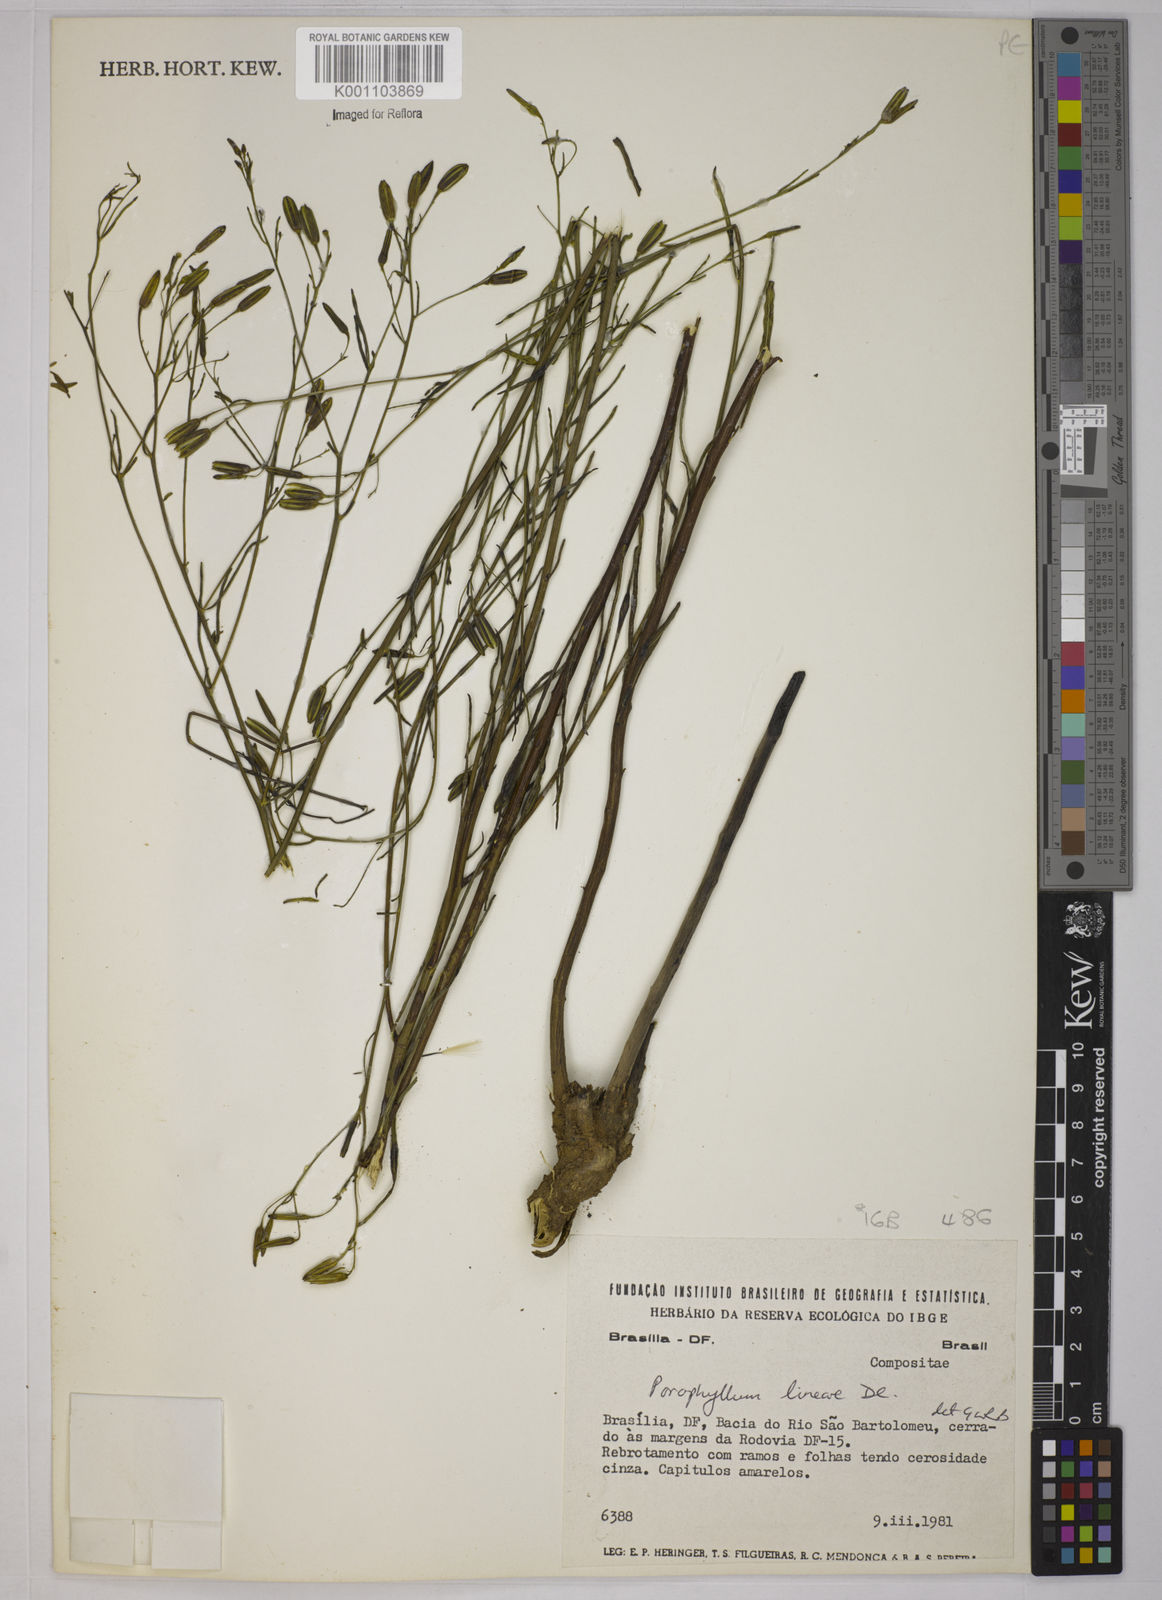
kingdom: Plantae
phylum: Tracheophyta
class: Magnoliopsida
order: Asterales
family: Asteraceae
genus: Porophyllum
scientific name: Porophyllum obscurum
